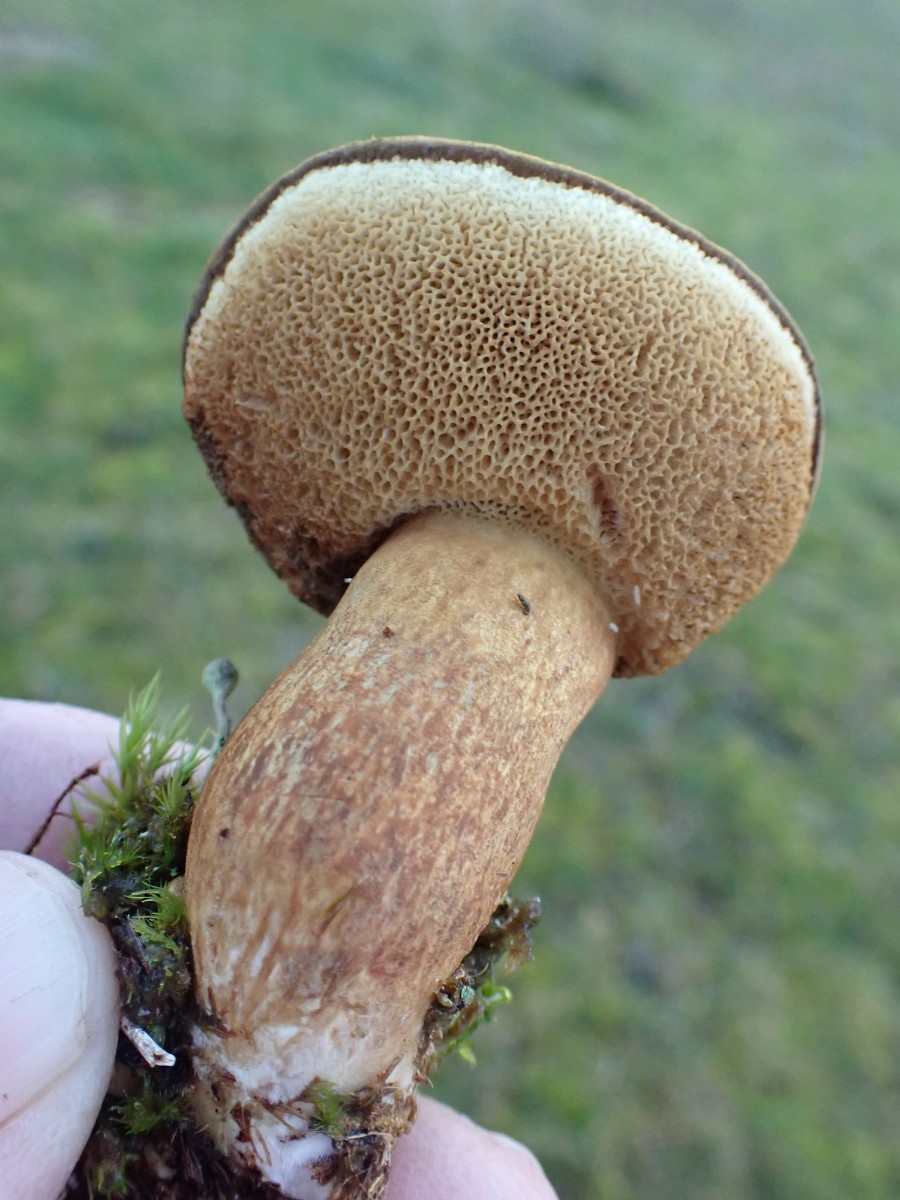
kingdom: Fungi
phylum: Basidiomycota
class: Agaricomycetes
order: Boletales
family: Boletaceae
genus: Imleria
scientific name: Imleria badia
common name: brunstokket rørhat
